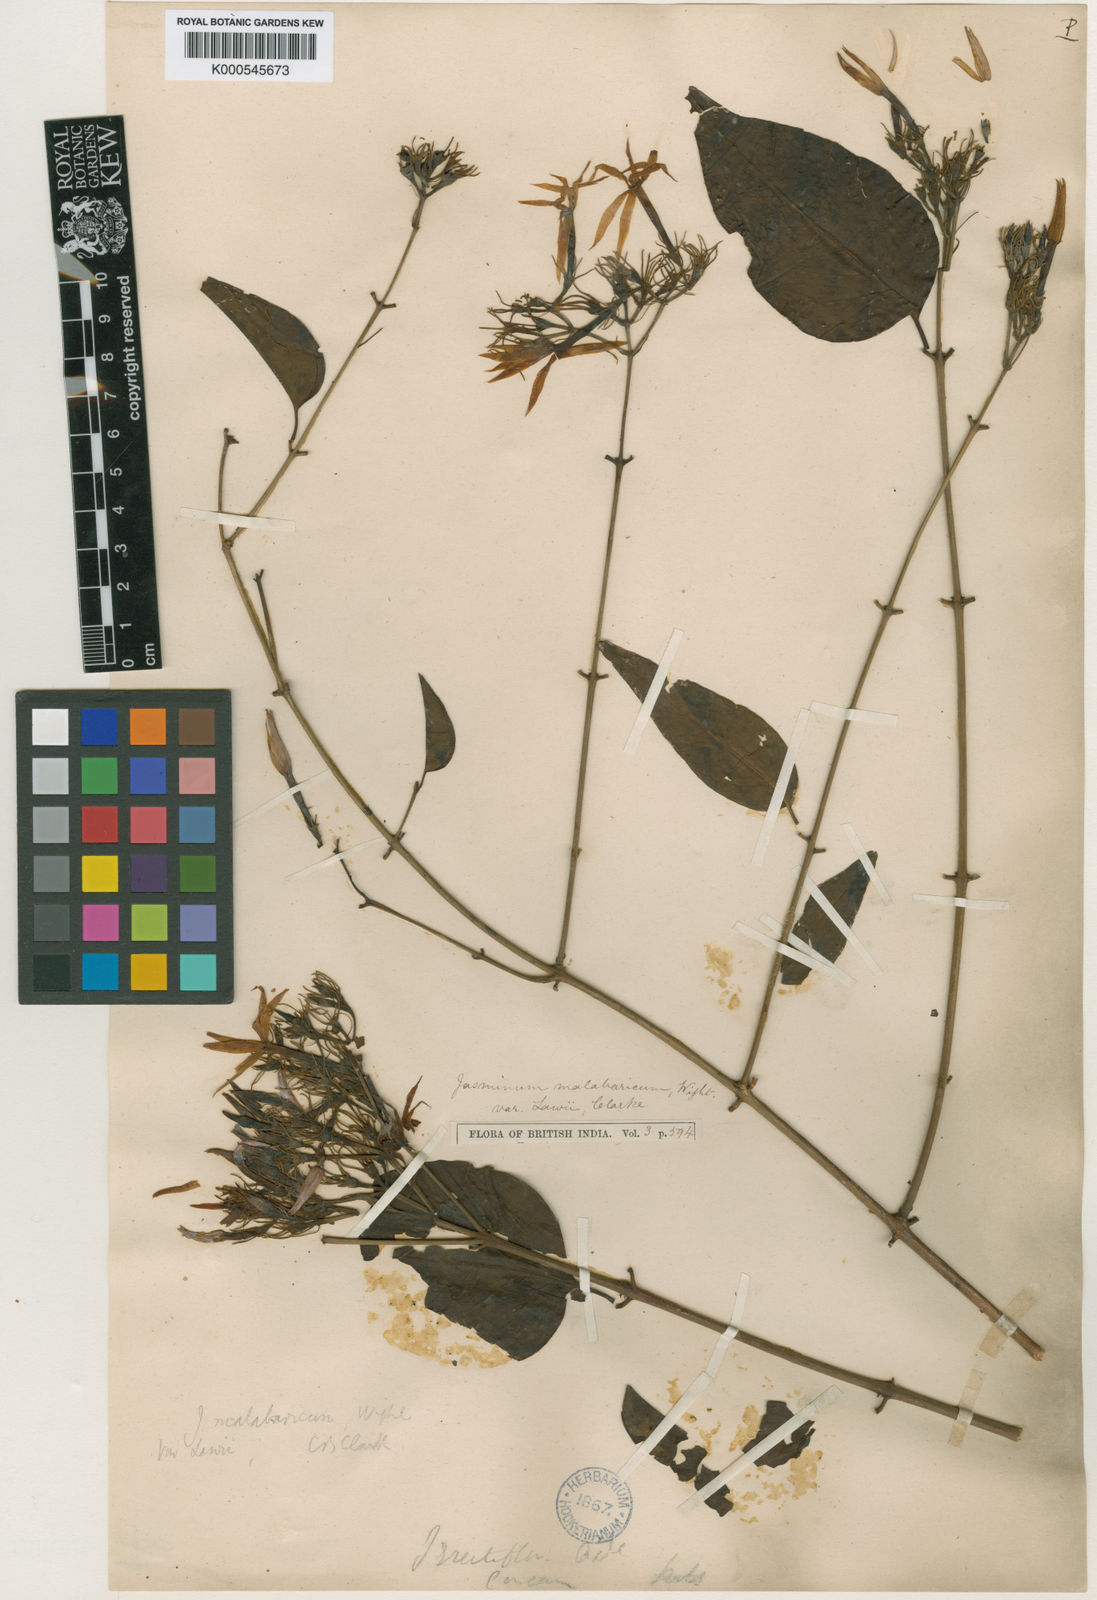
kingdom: Plantae
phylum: Tracheophyta
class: Magnoliopsida
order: Lamiales
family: Oleaceae
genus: Jasminum
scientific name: Jasminum cordifolium
